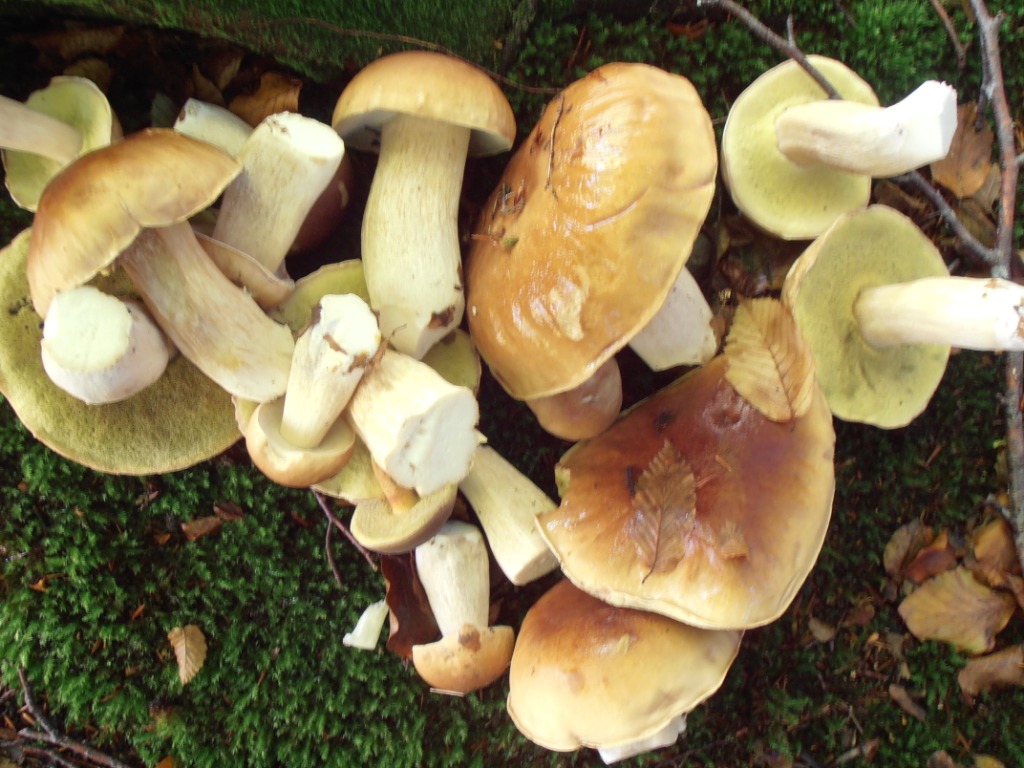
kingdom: Fungi
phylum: Basidiomycota
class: Agaricomycetes
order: Boletales
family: Boletaceae
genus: Boletus
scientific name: Boletus edulis
